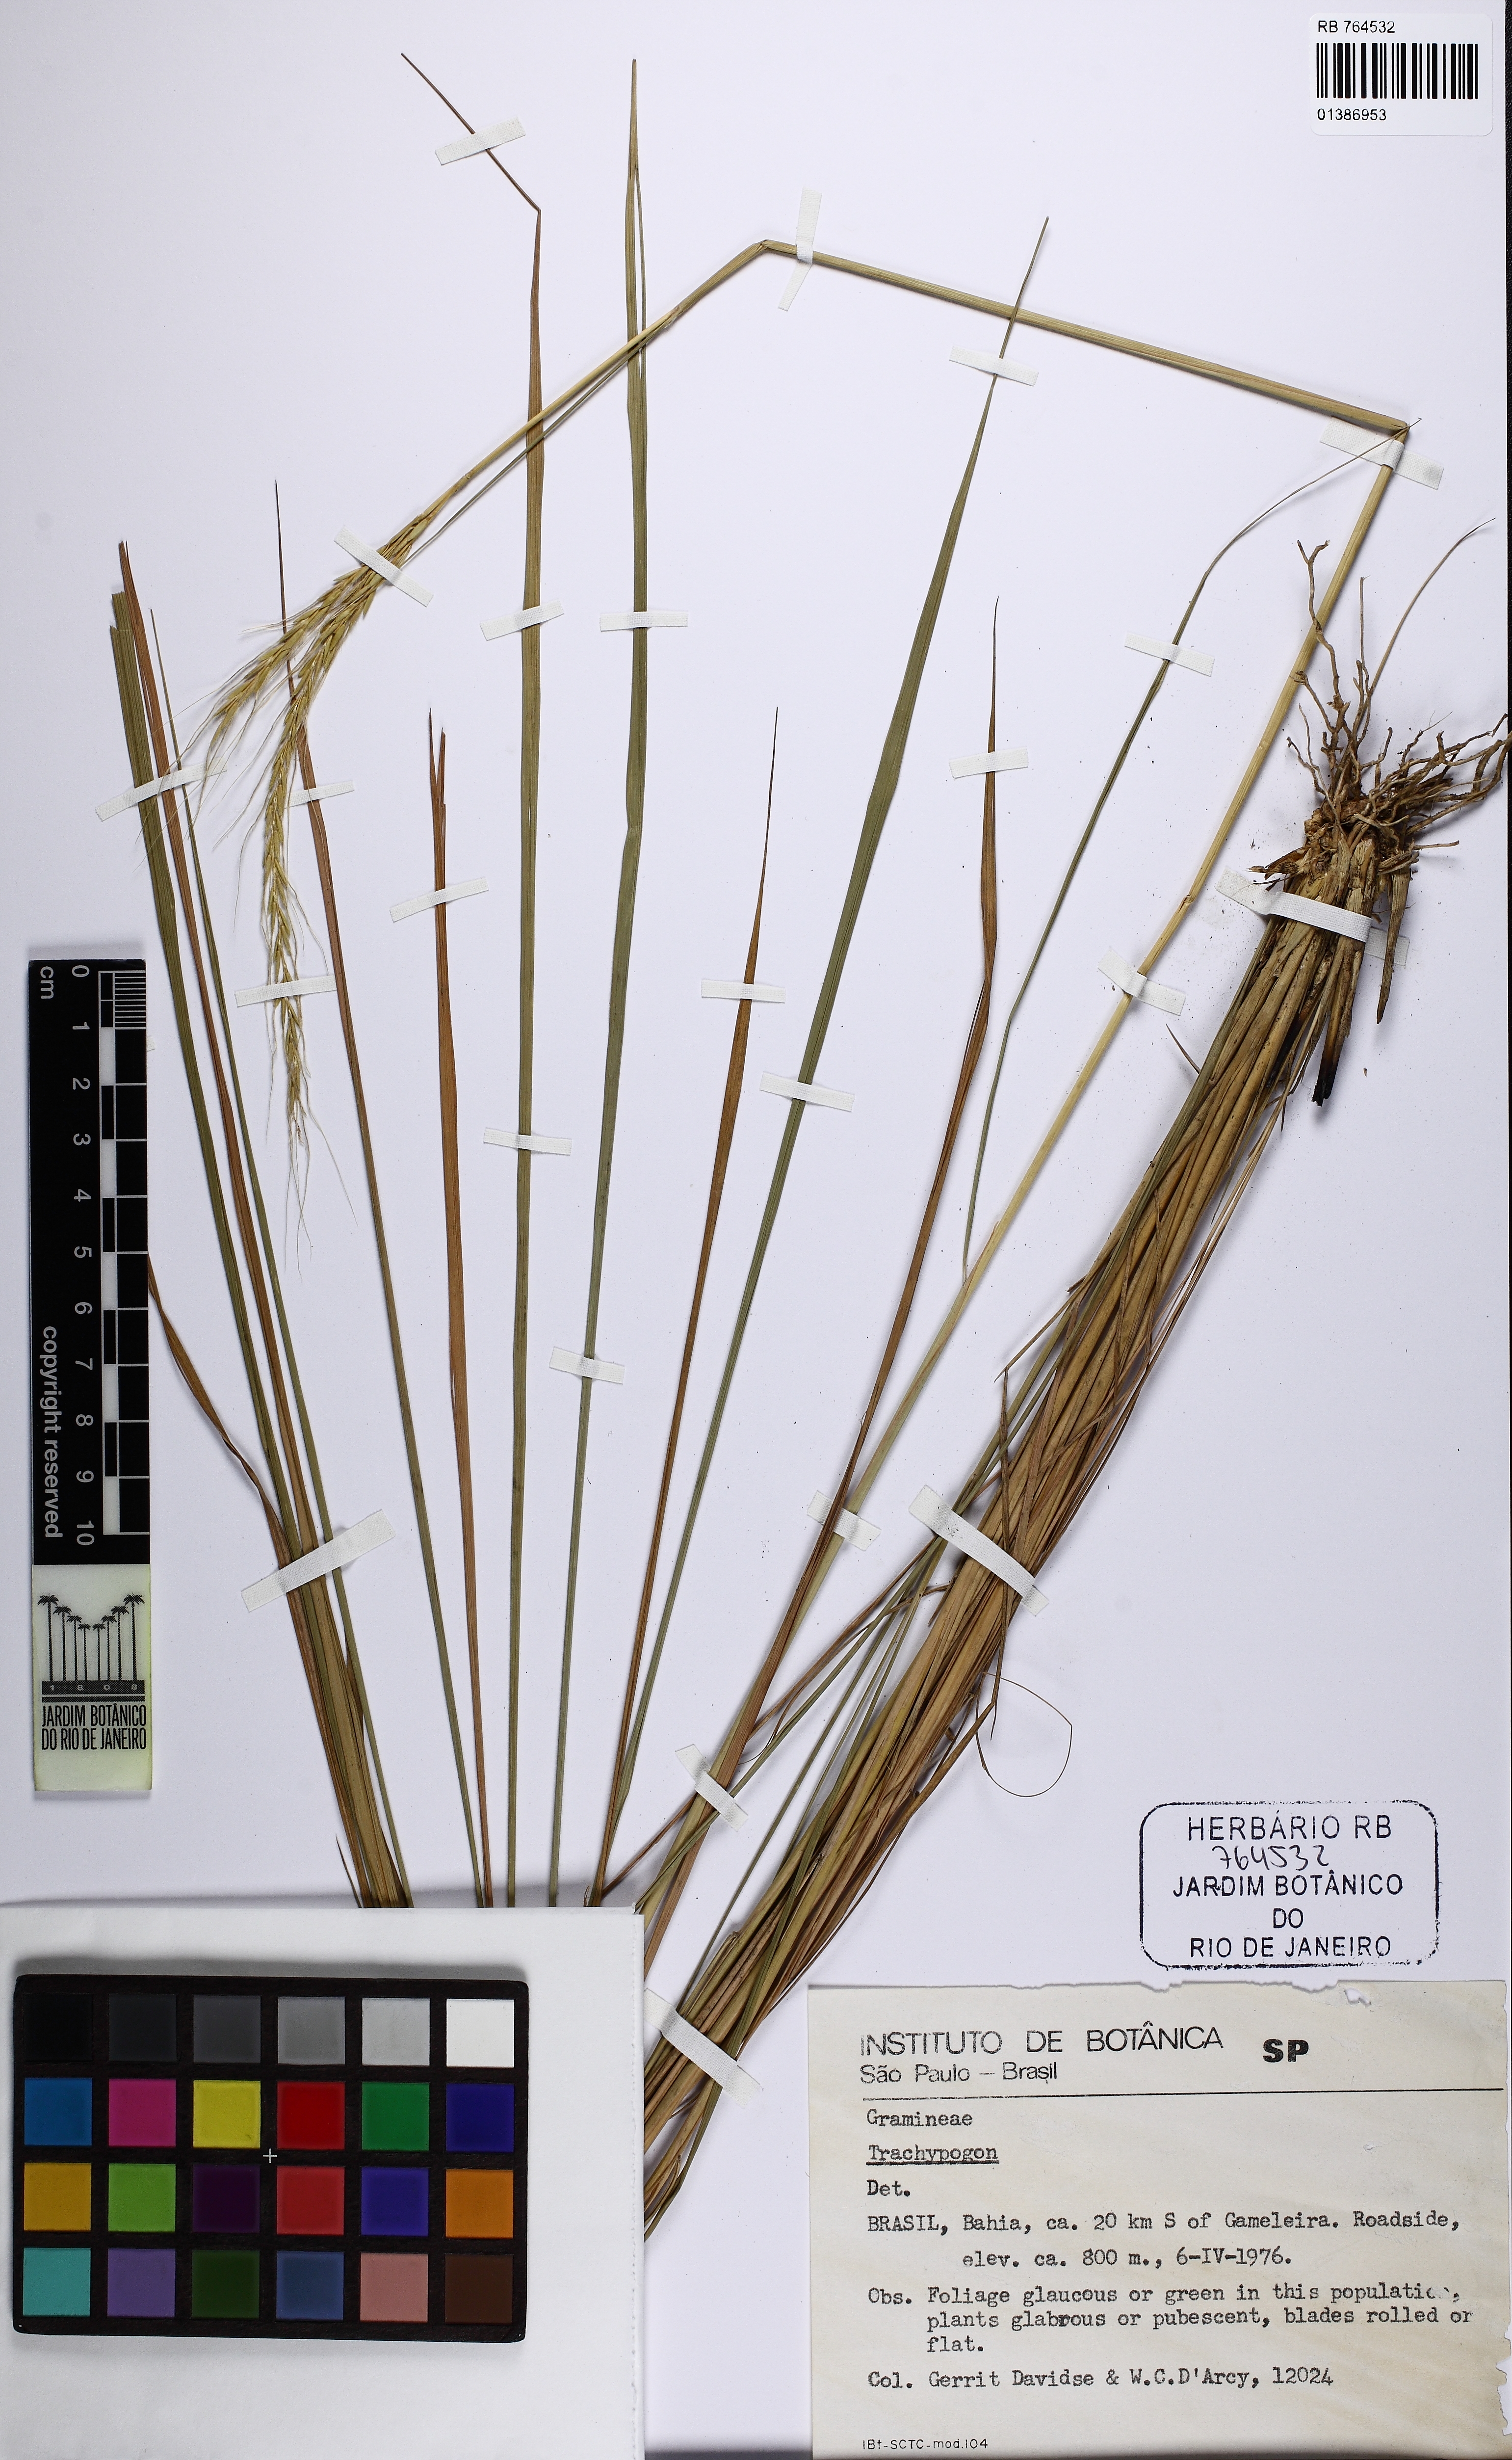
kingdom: Plantae
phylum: Tracheophyta
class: Liliopsida
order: Poales
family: Poaceae
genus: Trachypogon
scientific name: Trachypogon
